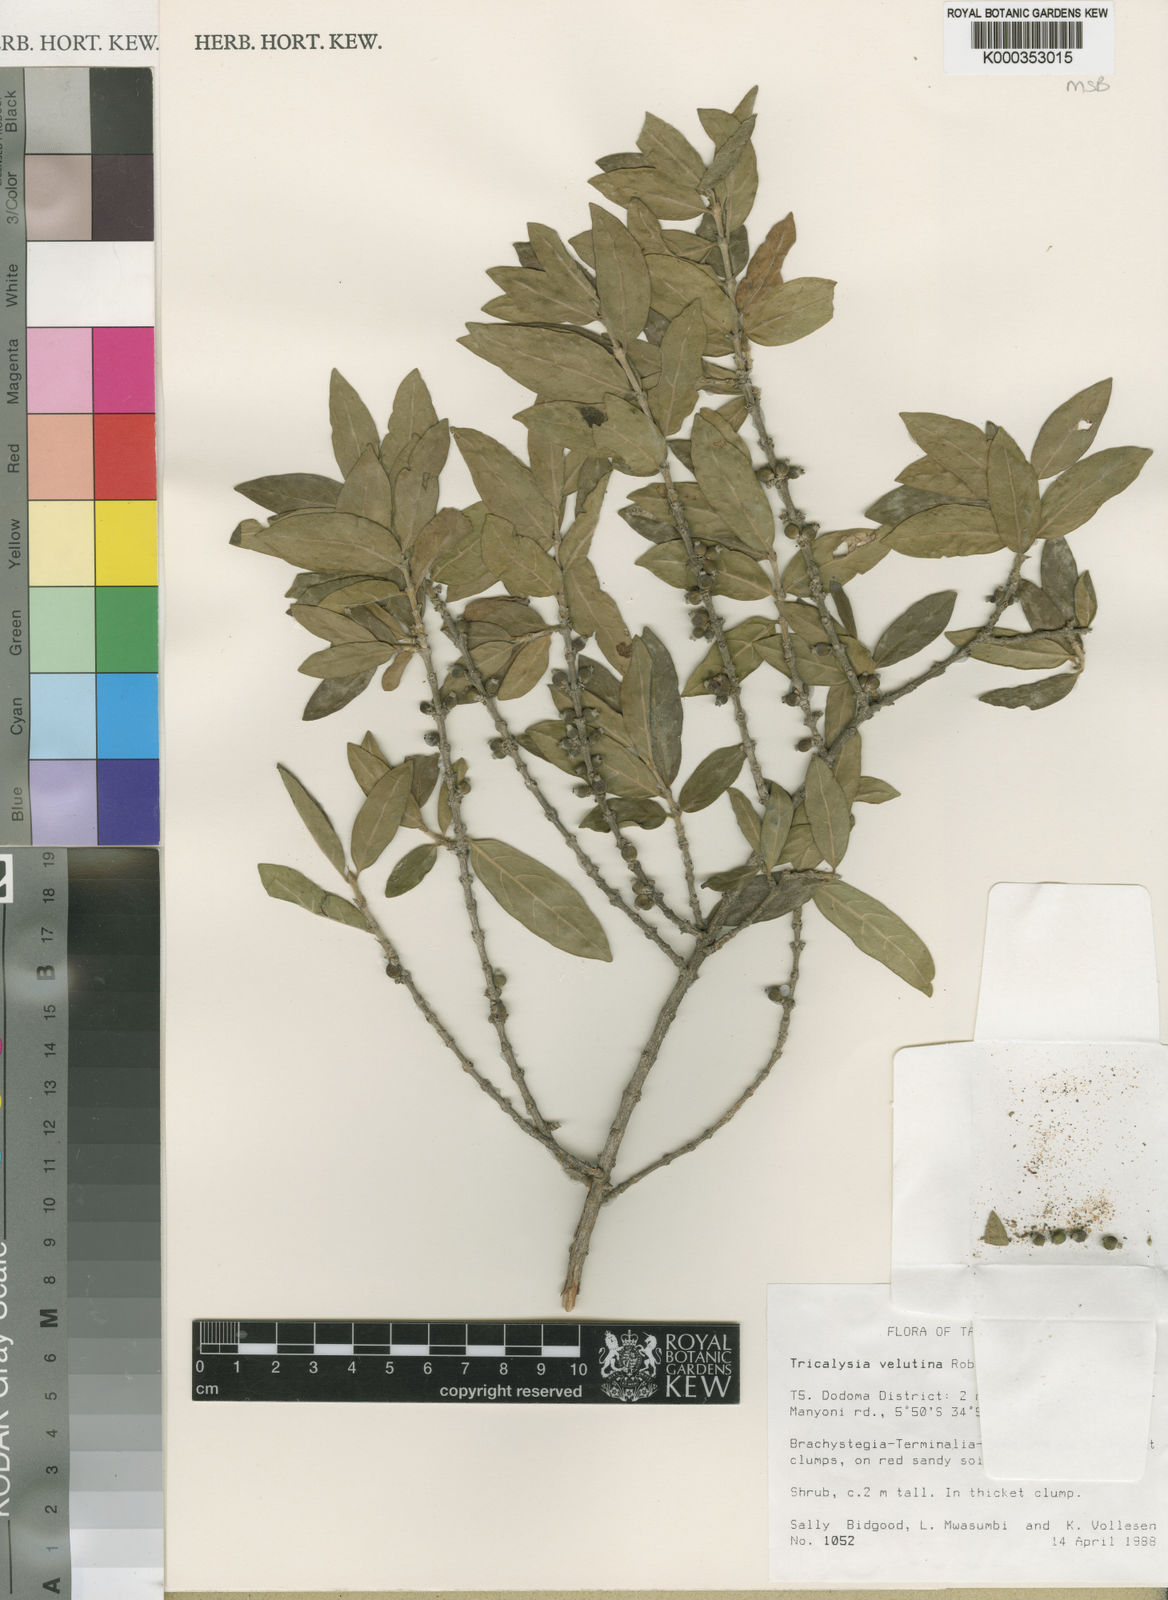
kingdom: Plantae
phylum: Tracheophyta
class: Magnoliopsida
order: Gentianales
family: Rubiaceae
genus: Tricalysia
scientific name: Tricalysia velutina
